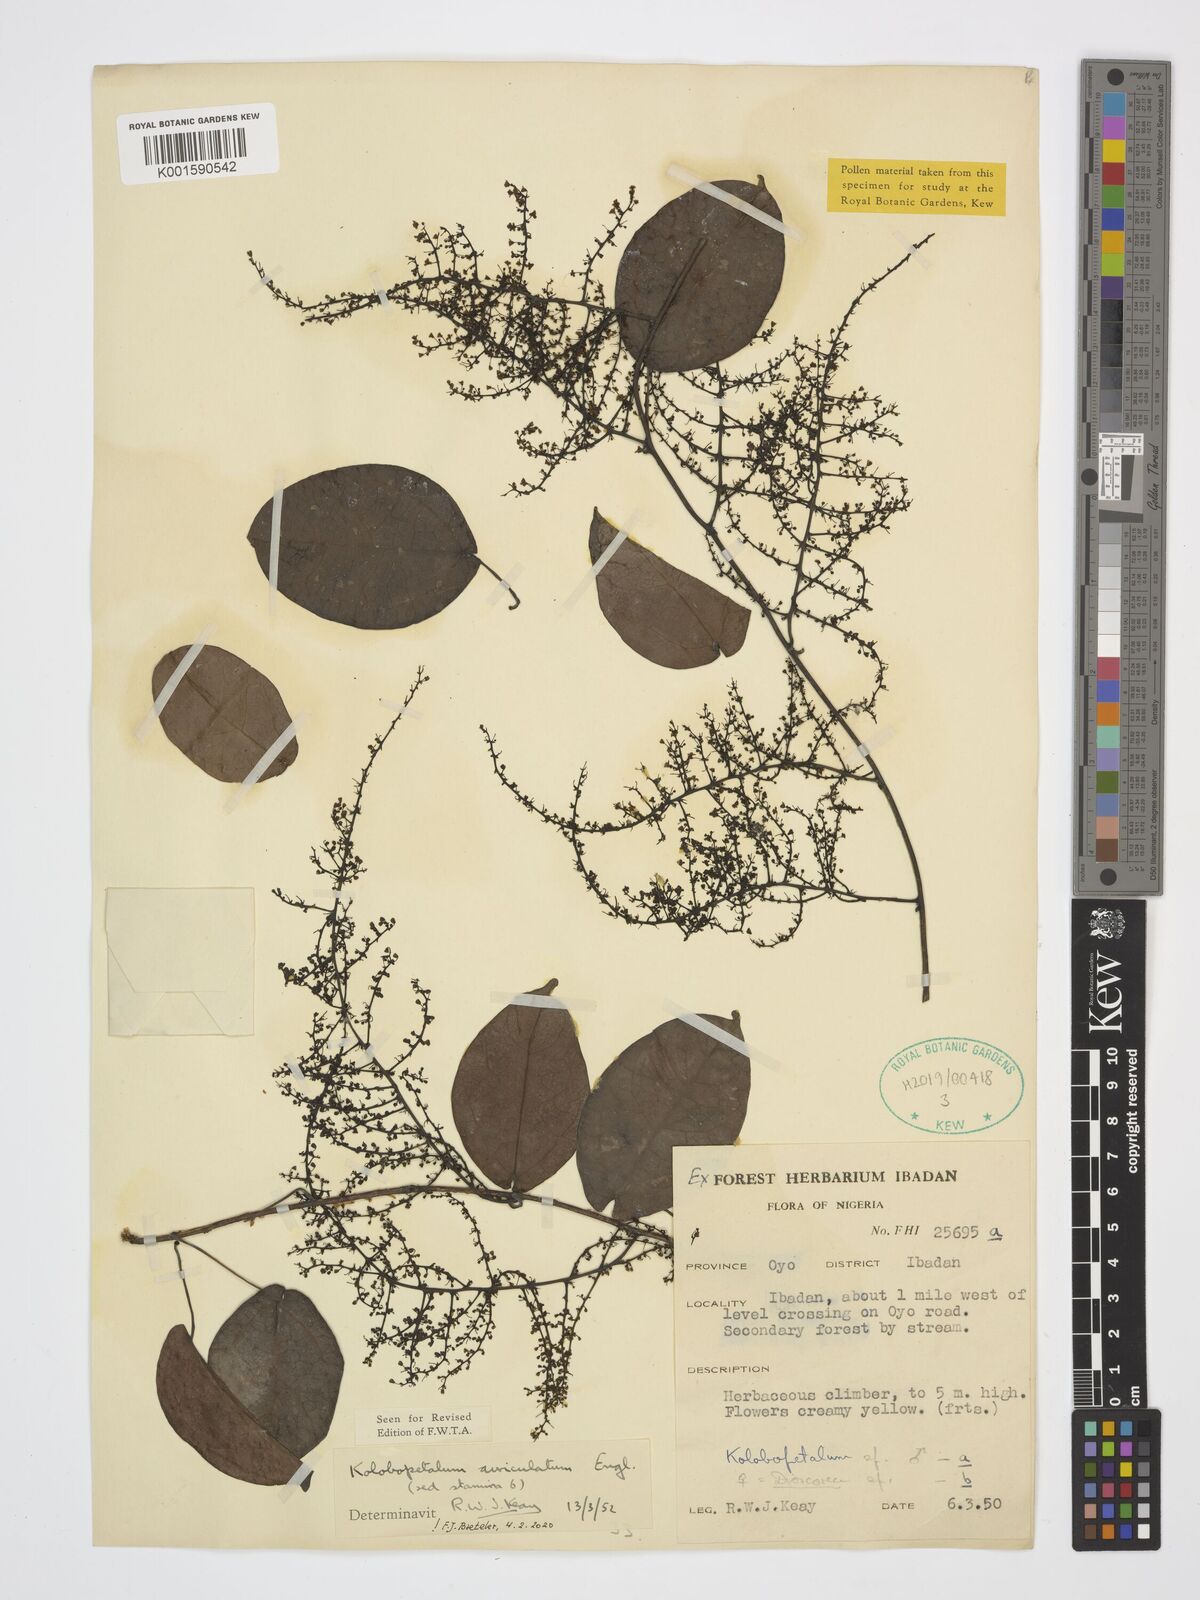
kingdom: Plantae
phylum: Tracheophyta
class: Magnoliopsida
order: Ranunculales
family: Menispermaceae
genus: Kolobopetalum
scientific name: Kolobopetalum auriculatum
